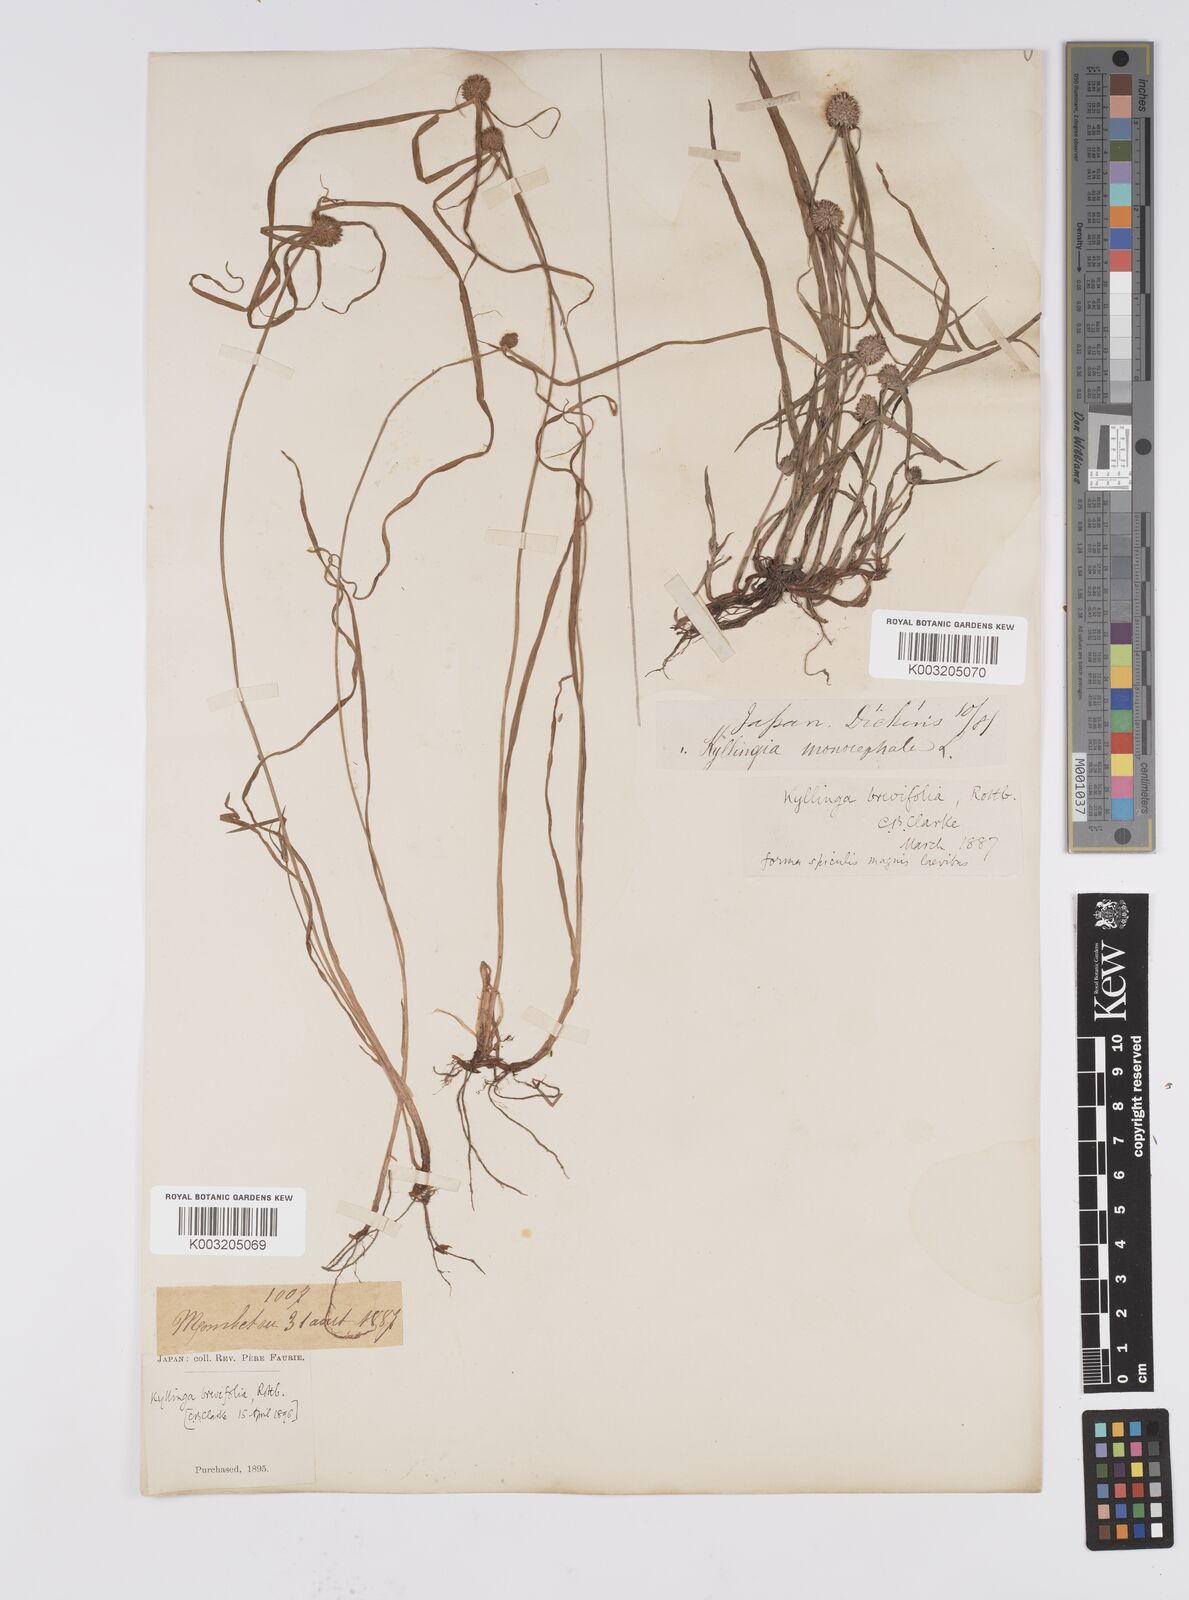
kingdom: Plantae
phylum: Tracheophyta
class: Liliopsida
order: Poales
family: Cyperaceae
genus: Cyperus
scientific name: Cyperus brevifolius
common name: Globe kyllinga
